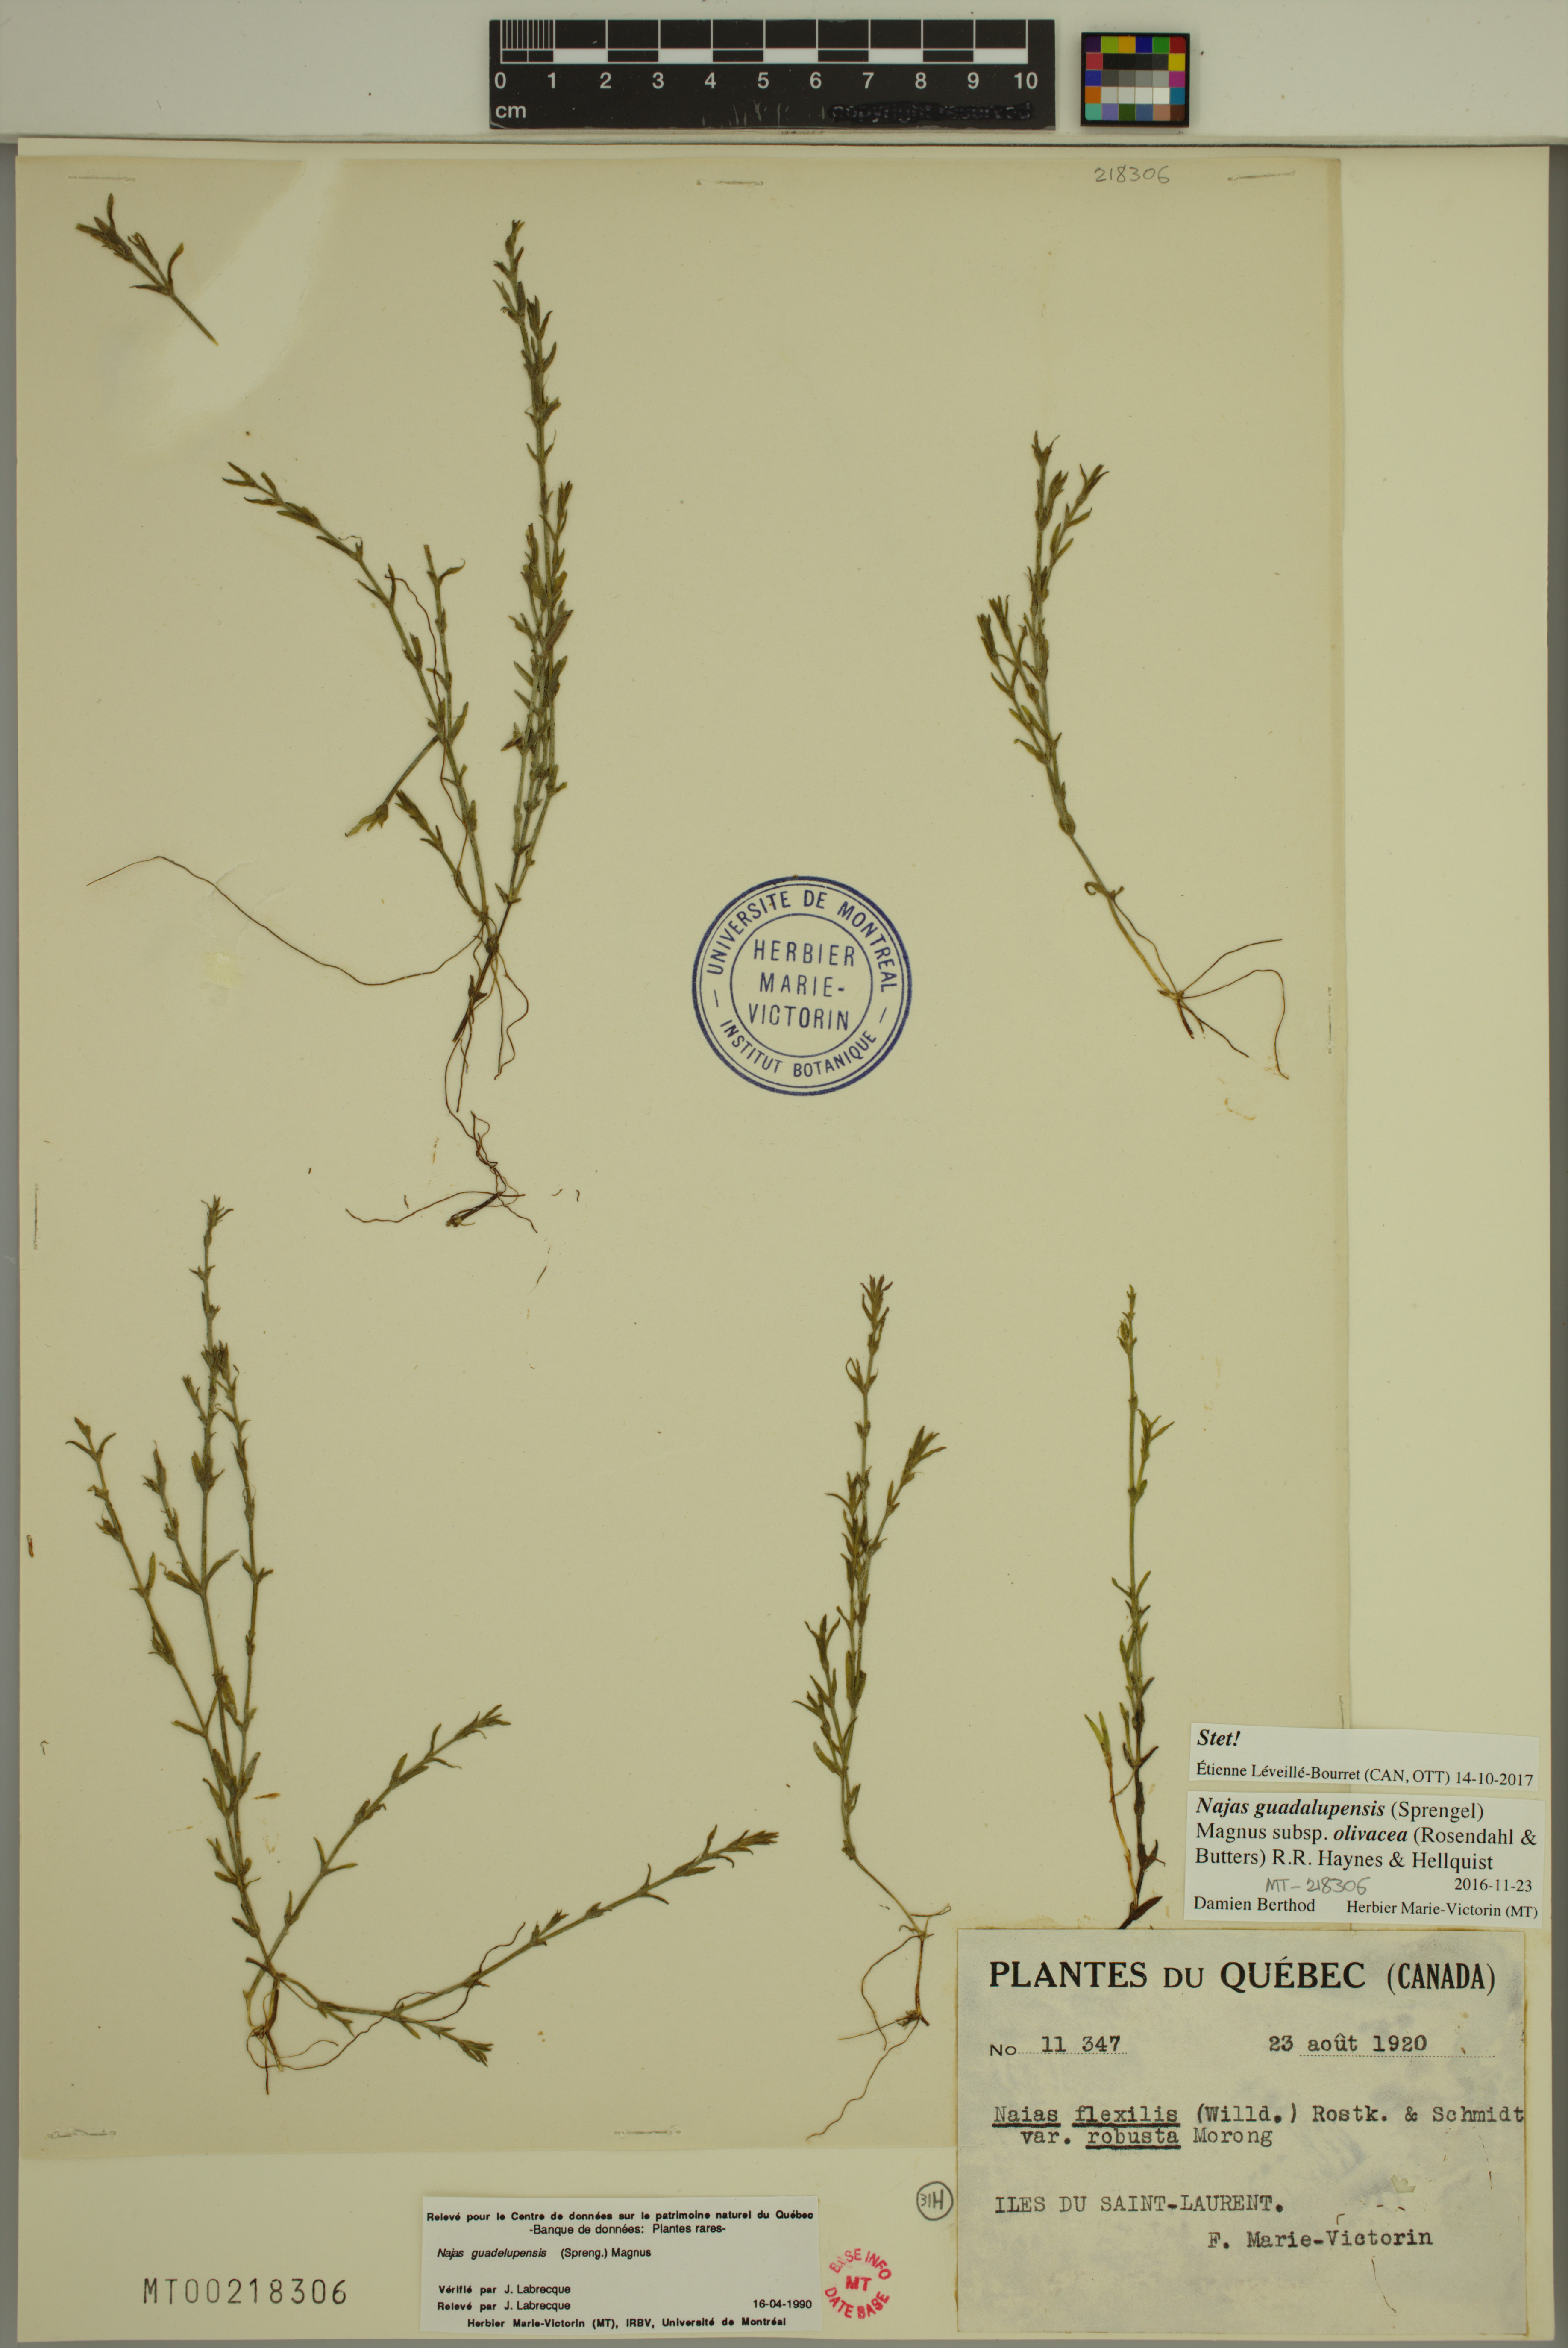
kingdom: Plantae
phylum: Tracheophyta
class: Liliopsida
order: Alismatales
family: Hydrocharitaceae
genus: Najas
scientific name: Najas guadalupensis
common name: Southern naiad
